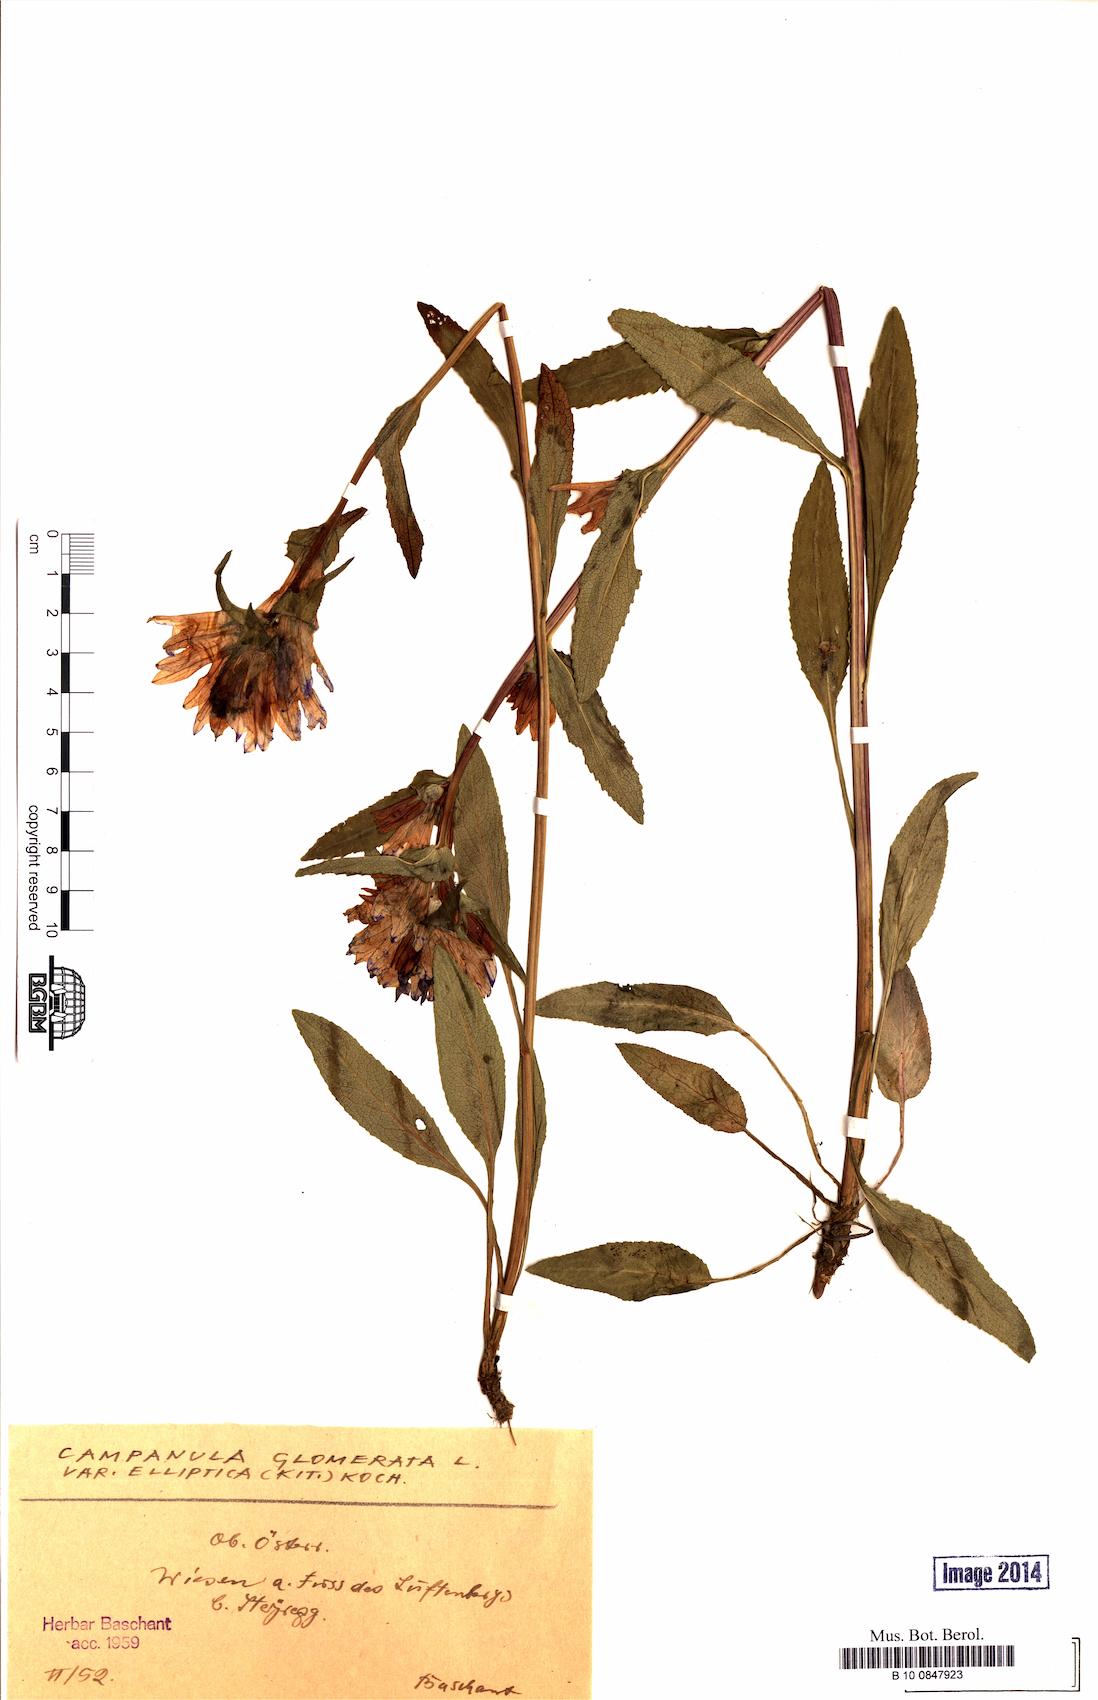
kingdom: Plantae
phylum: Tracheophyta
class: Magnoliopsida
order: Asterales
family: Campanulaceae
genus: Campanula
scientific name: Campanula glomerata
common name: Clustered bellflower
